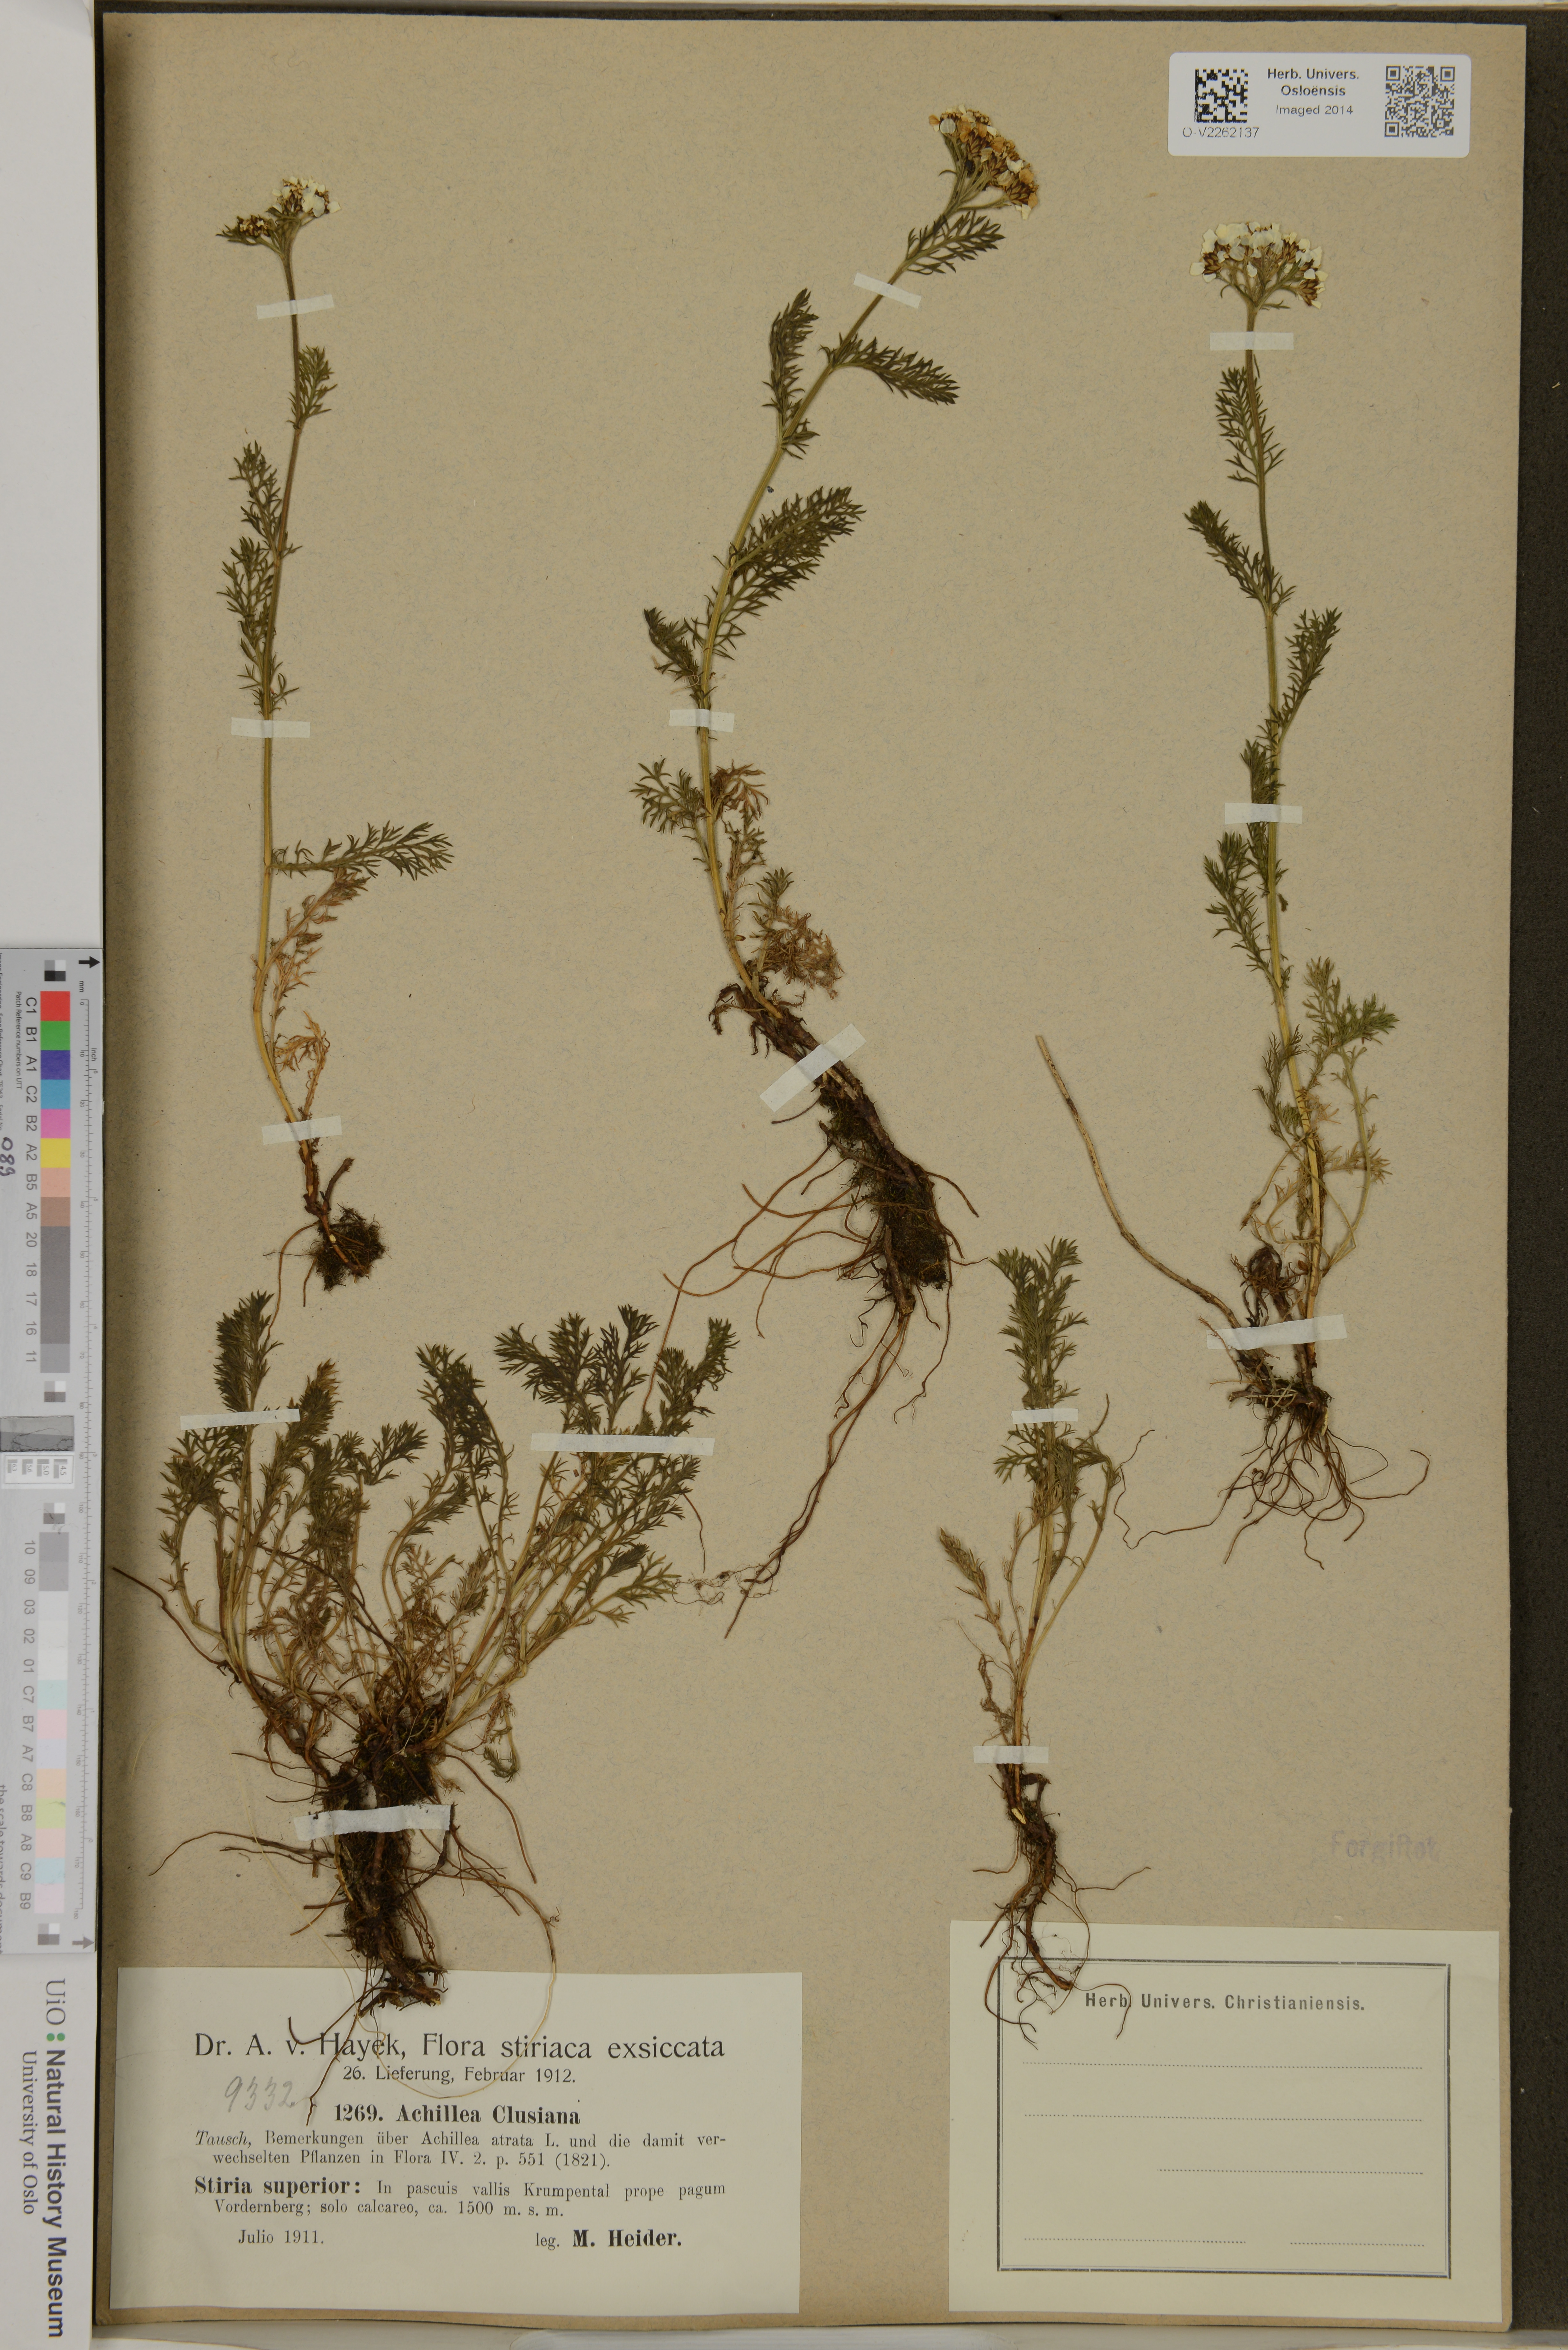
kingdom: Plantae
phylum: Tracheophyta
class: Magnoliopsida
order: Asterales
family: Asteraceae
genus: Achillea
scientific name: Achillea clusiana
